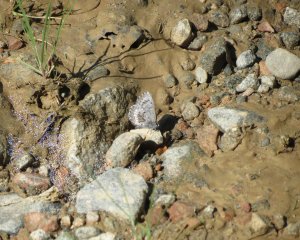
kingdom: Animalia
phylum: Arthropoda
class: Insecta
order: Lepidoptera
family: Lycaenidae
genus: Celastrina
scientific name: Celastrina lucia
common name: Northern Spring Azure
